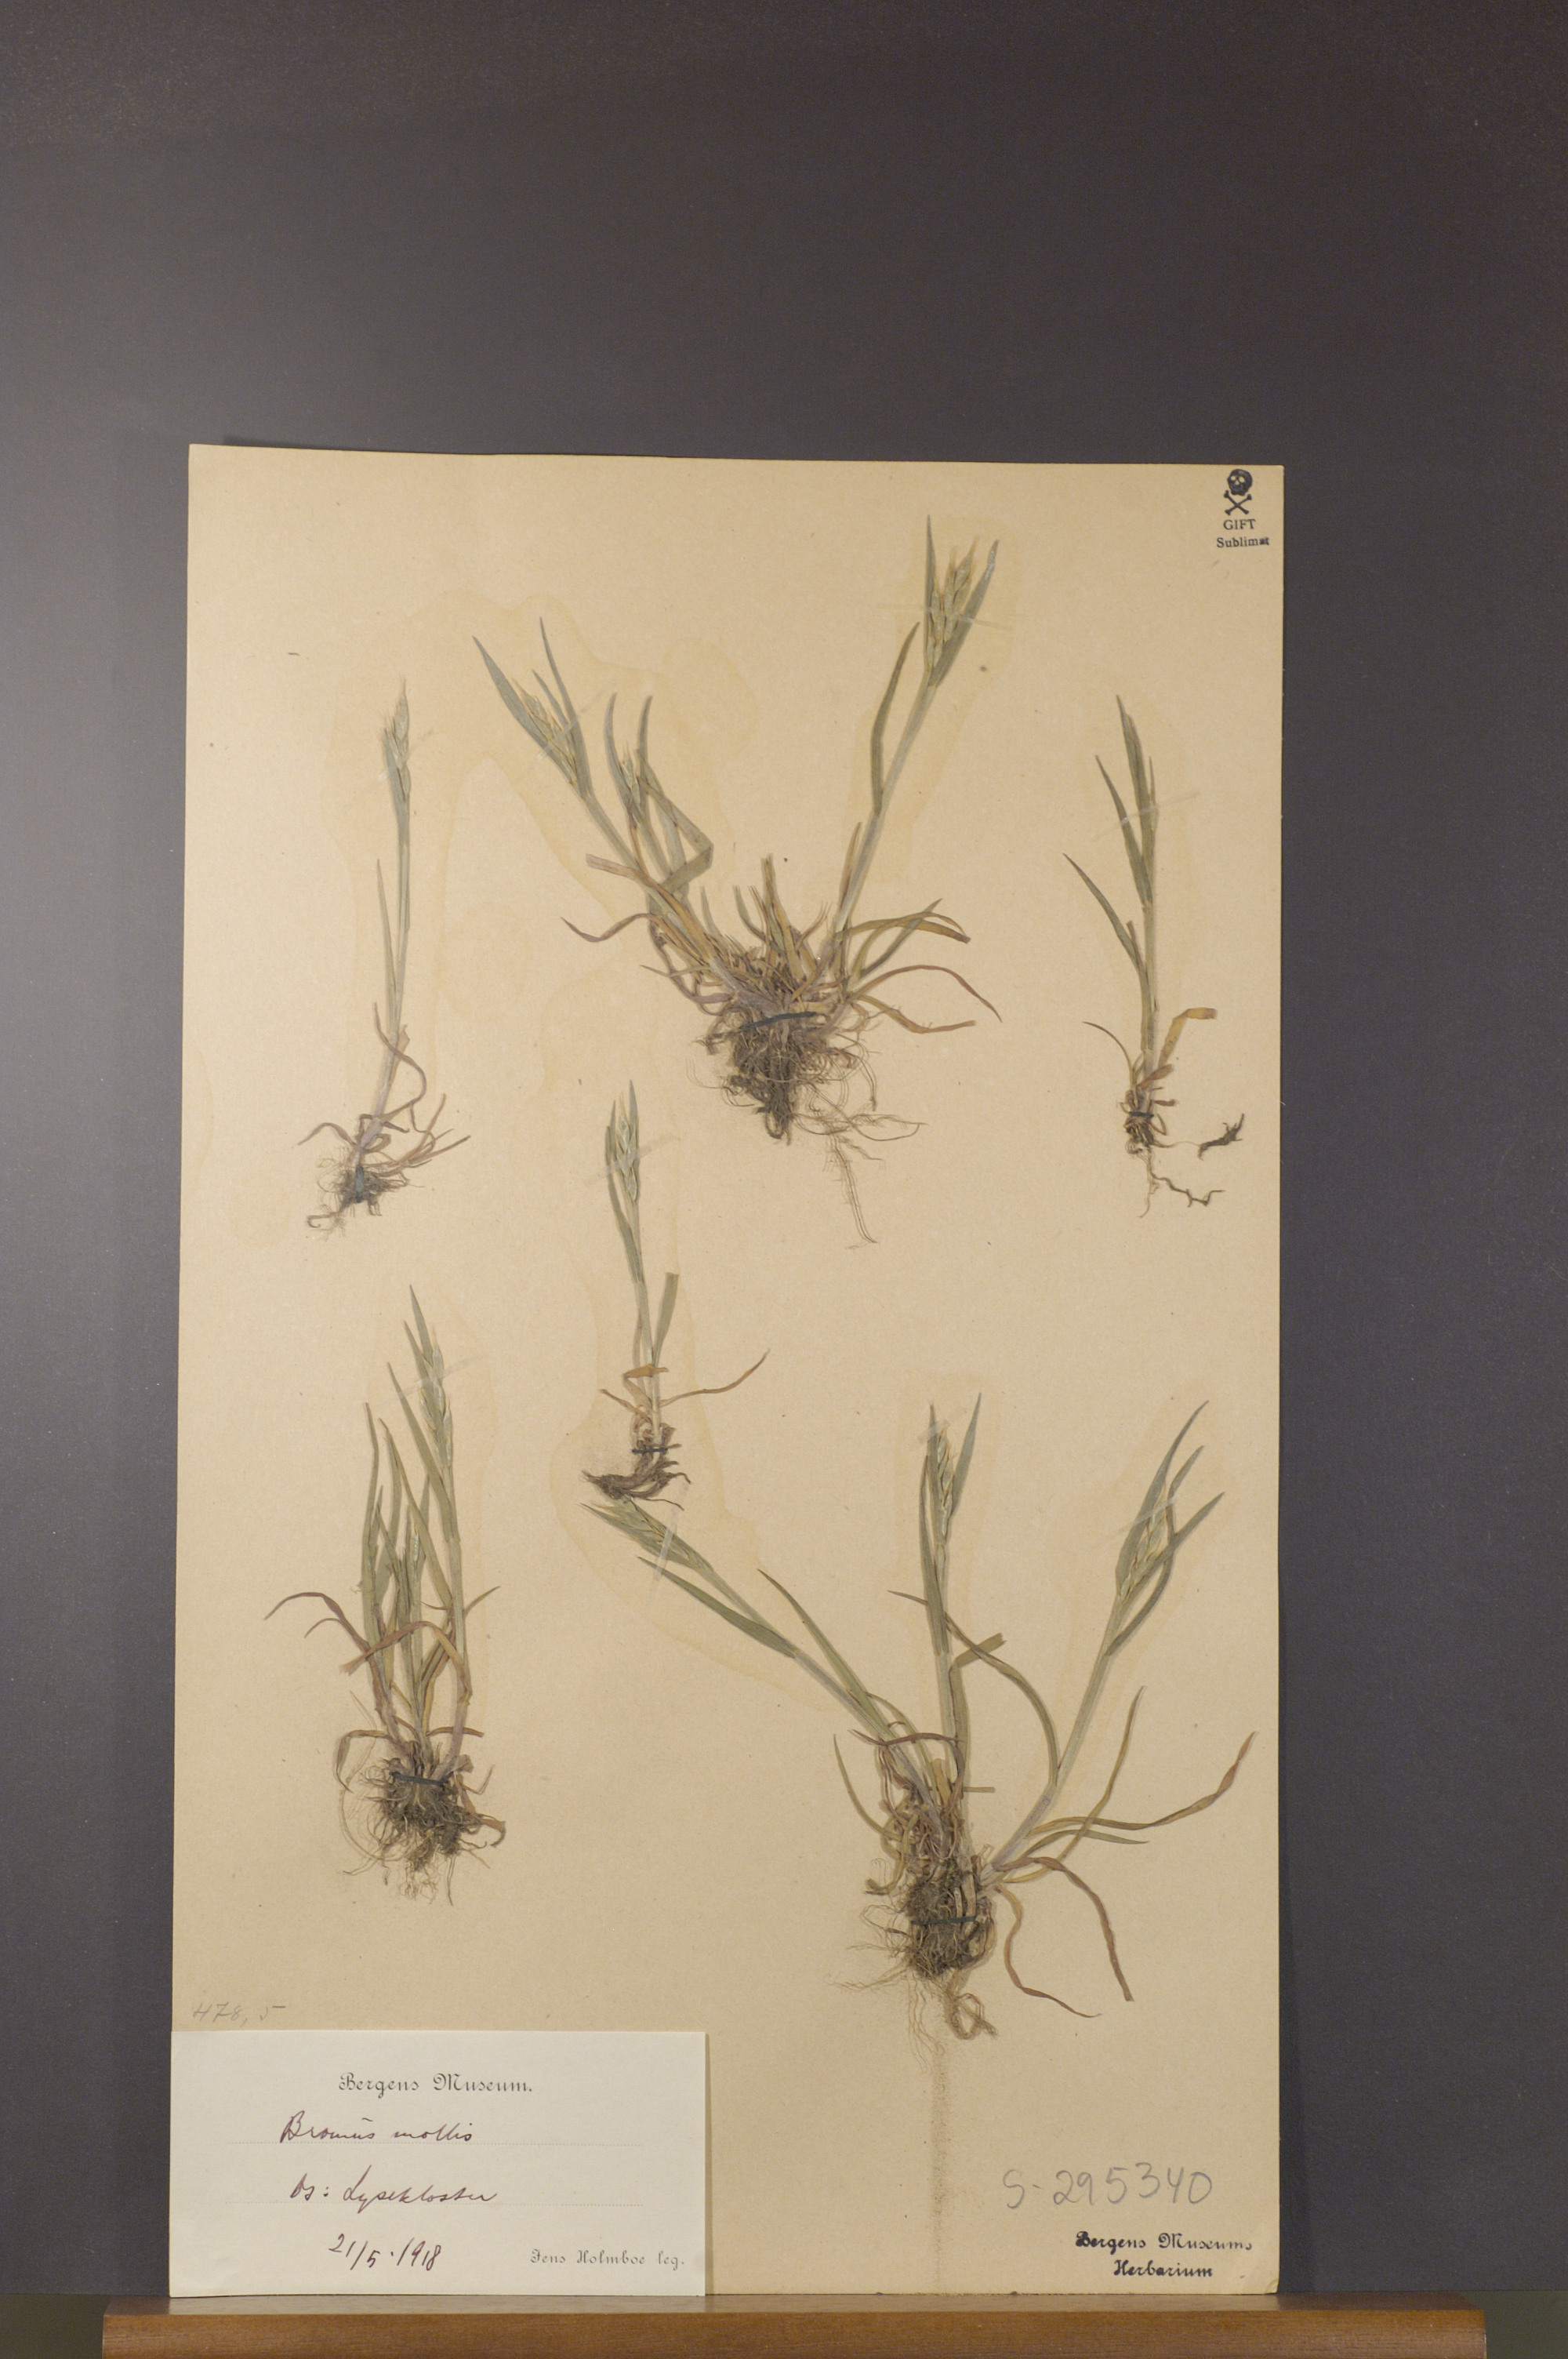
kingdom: Plantae
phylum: Tracheophyta
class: Liliopsida
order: Poales
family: Poaceae
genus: Bromus
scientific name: Bromus hordeaceus
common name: Soft brome
